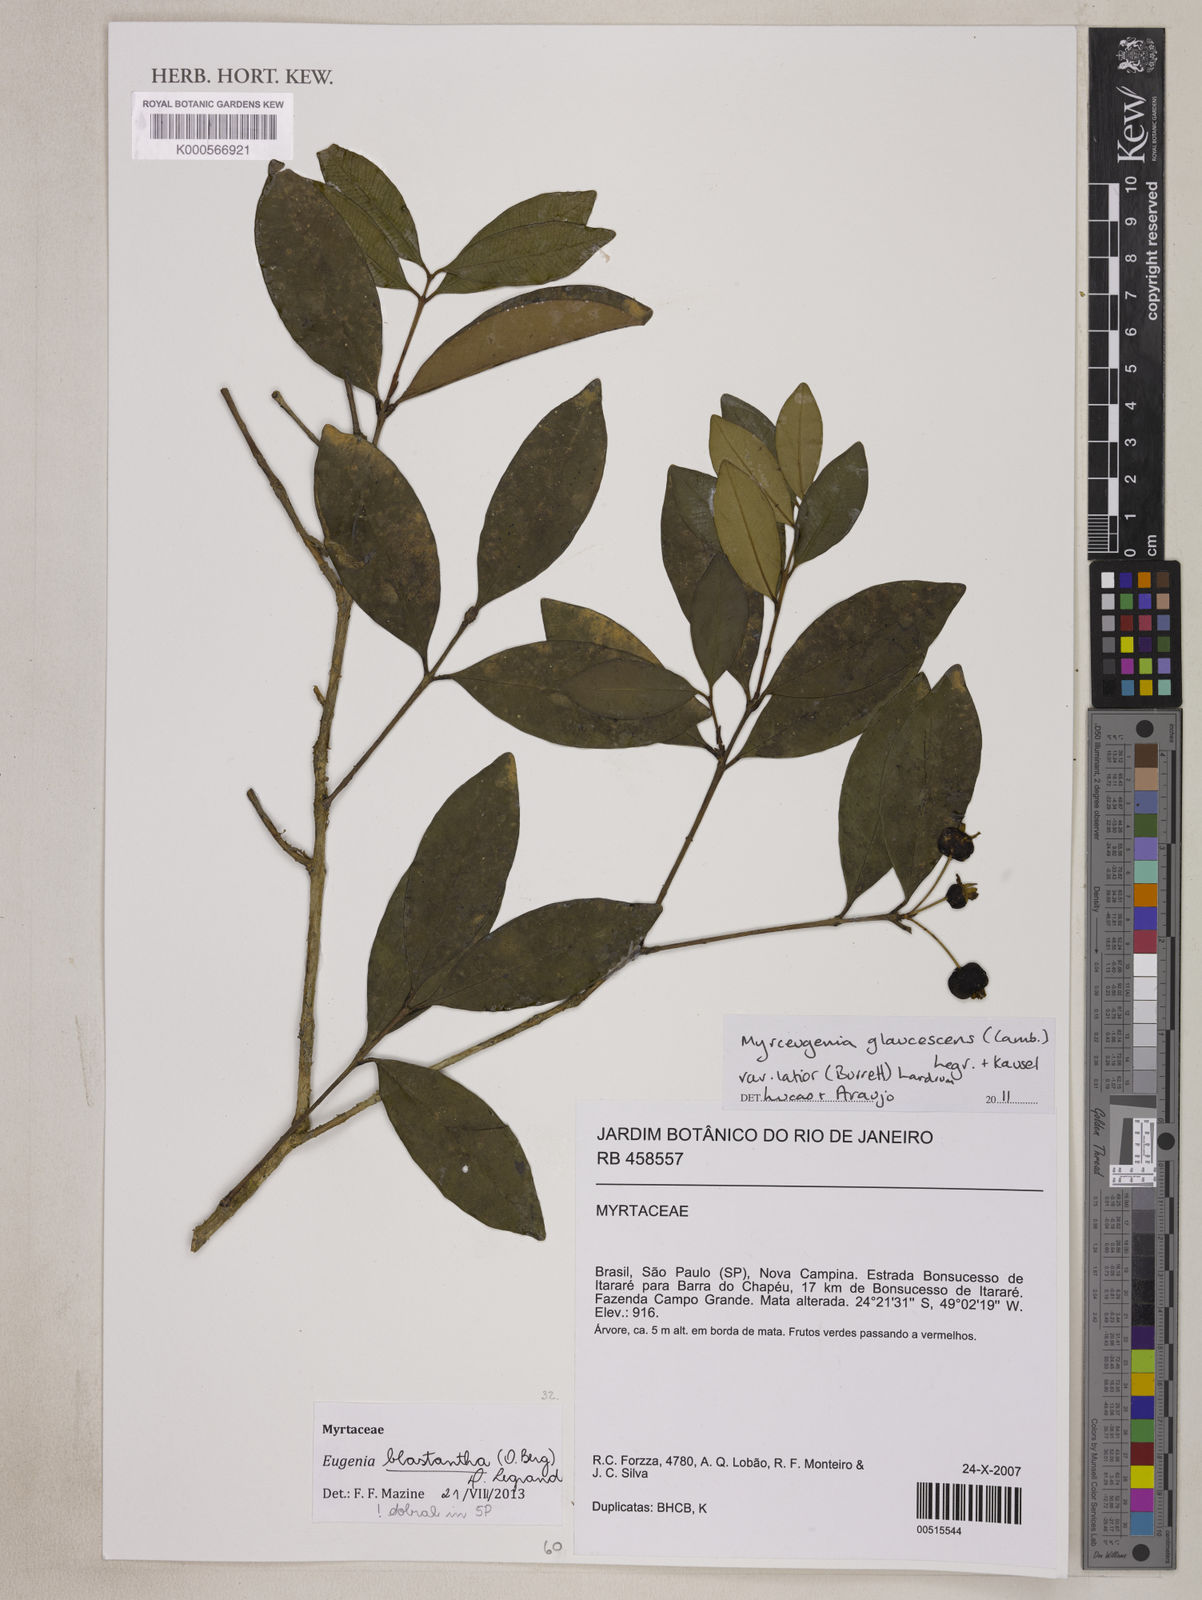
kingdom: Plantae
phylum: Tracheophyta
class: Magnoliopsida
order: Myrtales
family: Myrtaceae
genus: Eugenia
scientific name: Eugenia blastantha
